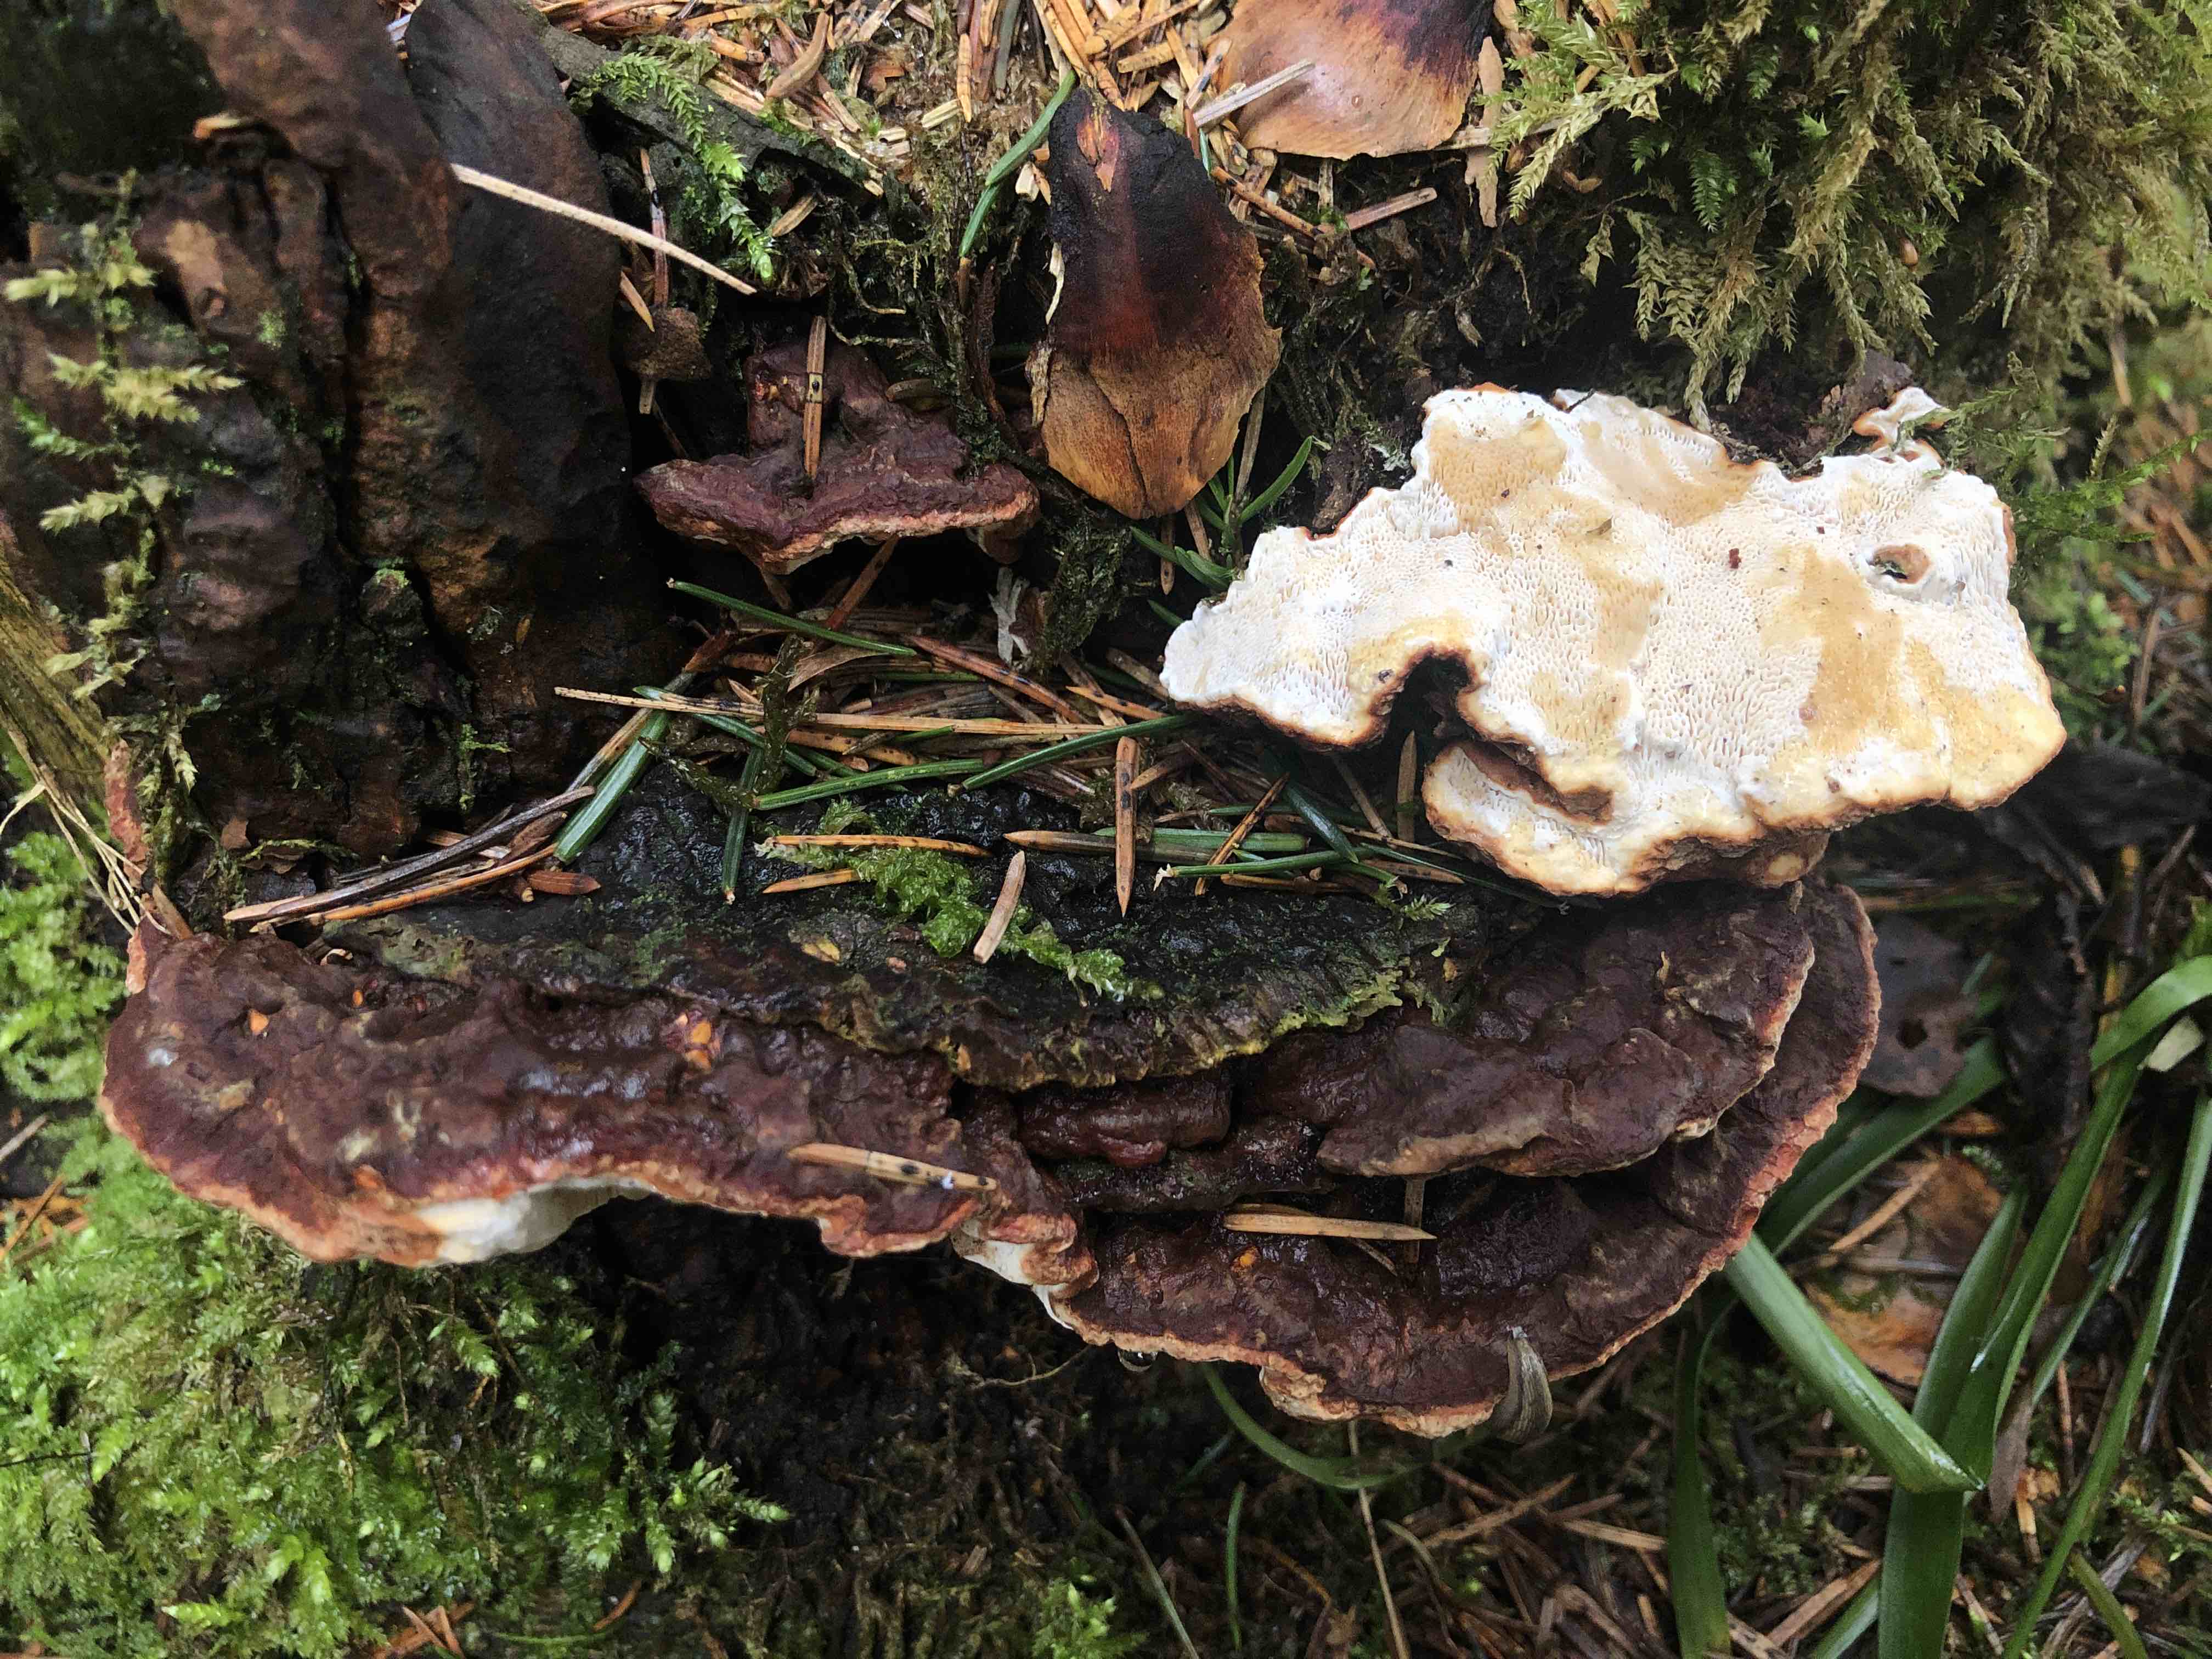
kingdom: Fungi
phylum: Basidiomycota
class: Agaricomycetes
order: Russulales
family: Bondarzewiaceae
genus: Heterobasidion
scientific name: Heterobasidion annosum
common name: almindelig rodfordærver
